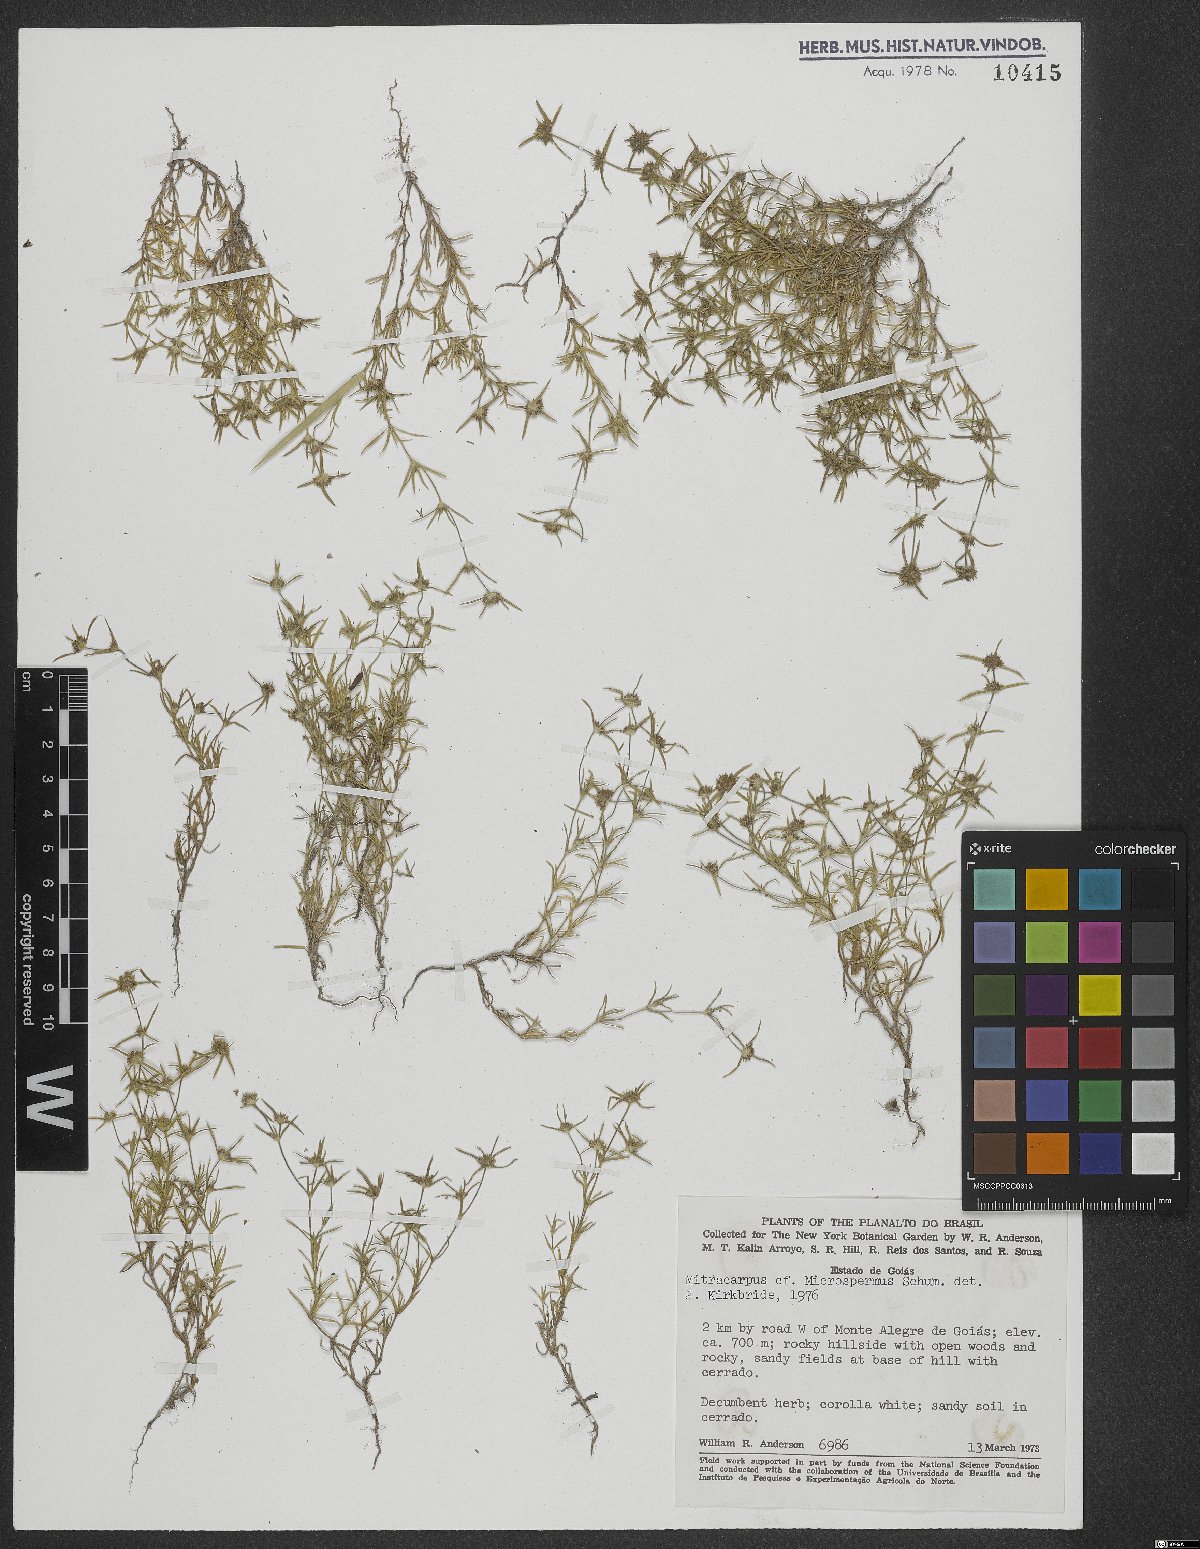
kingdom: Plantae
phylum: Tracheophyta
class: Magnoliopsida
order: Gentianales
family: Rubiaceae
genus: Mitracarpus
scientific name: Mitracarpus microspermus
